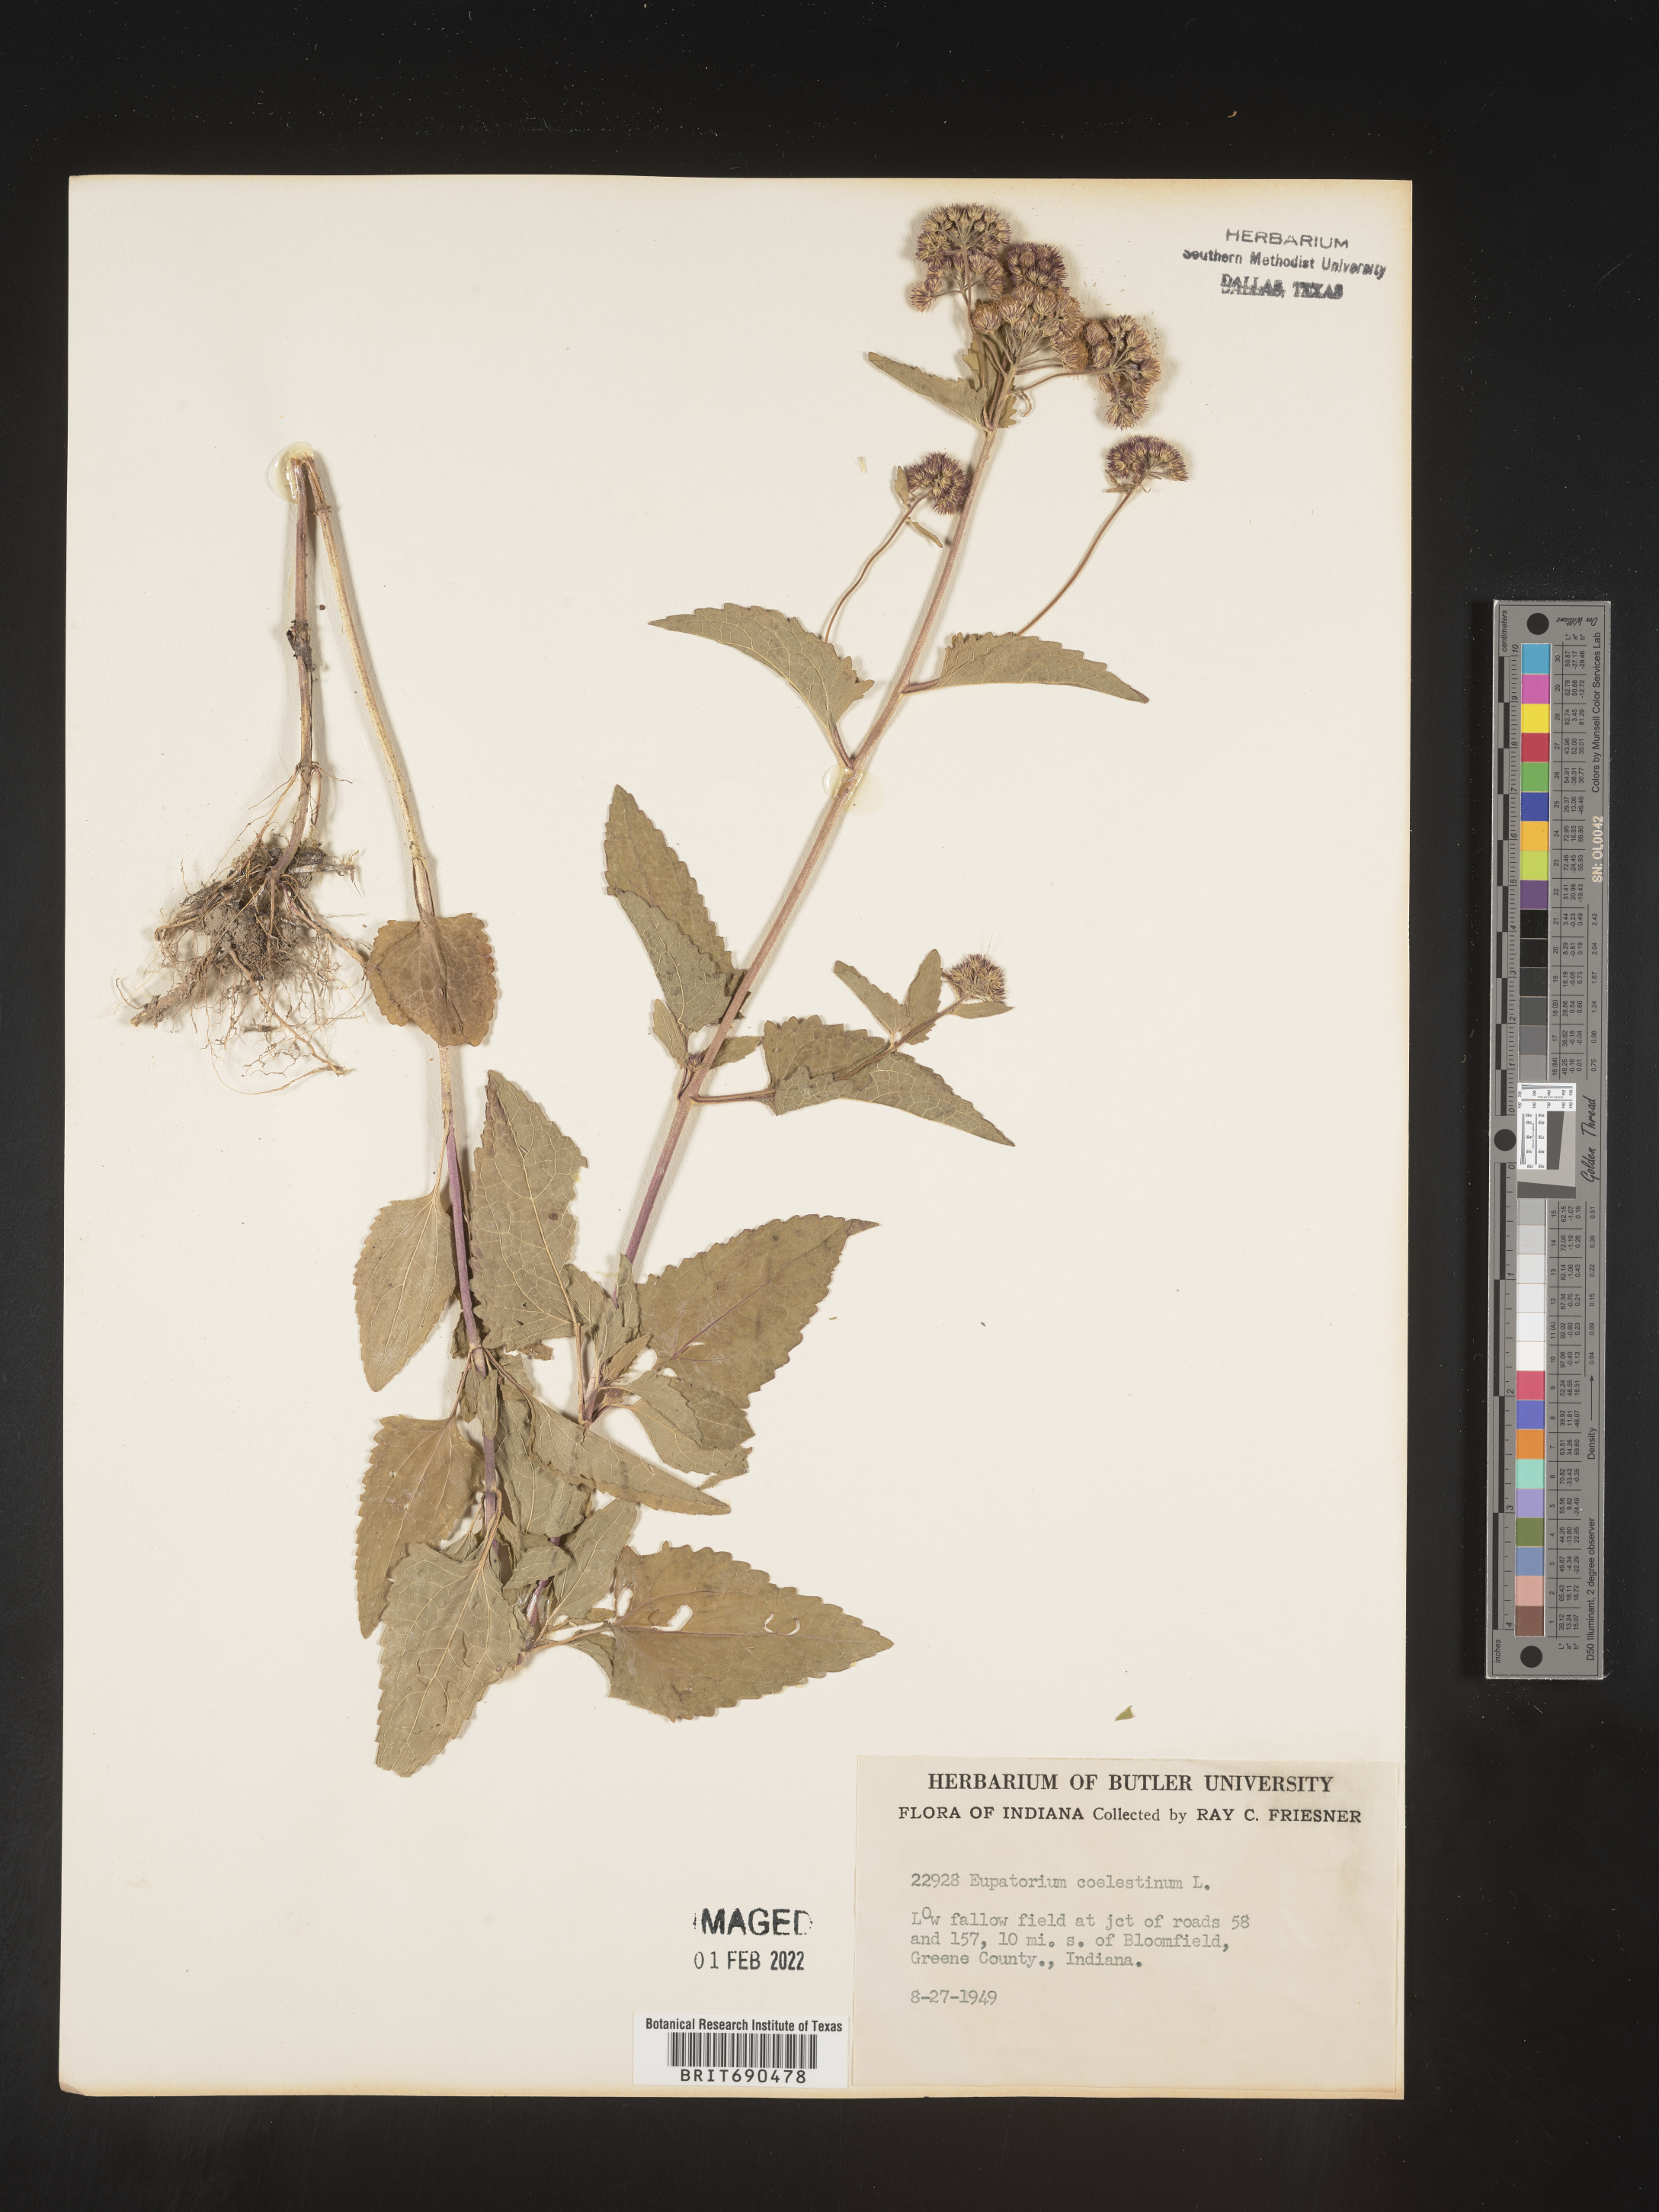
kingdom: Plantae
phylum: Tracheophyta
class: Magnoliopsida
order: Asterales
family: Asteraceae
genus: Conoclinium
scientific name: Conoclinium coelestinum
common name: Blue mistflower
